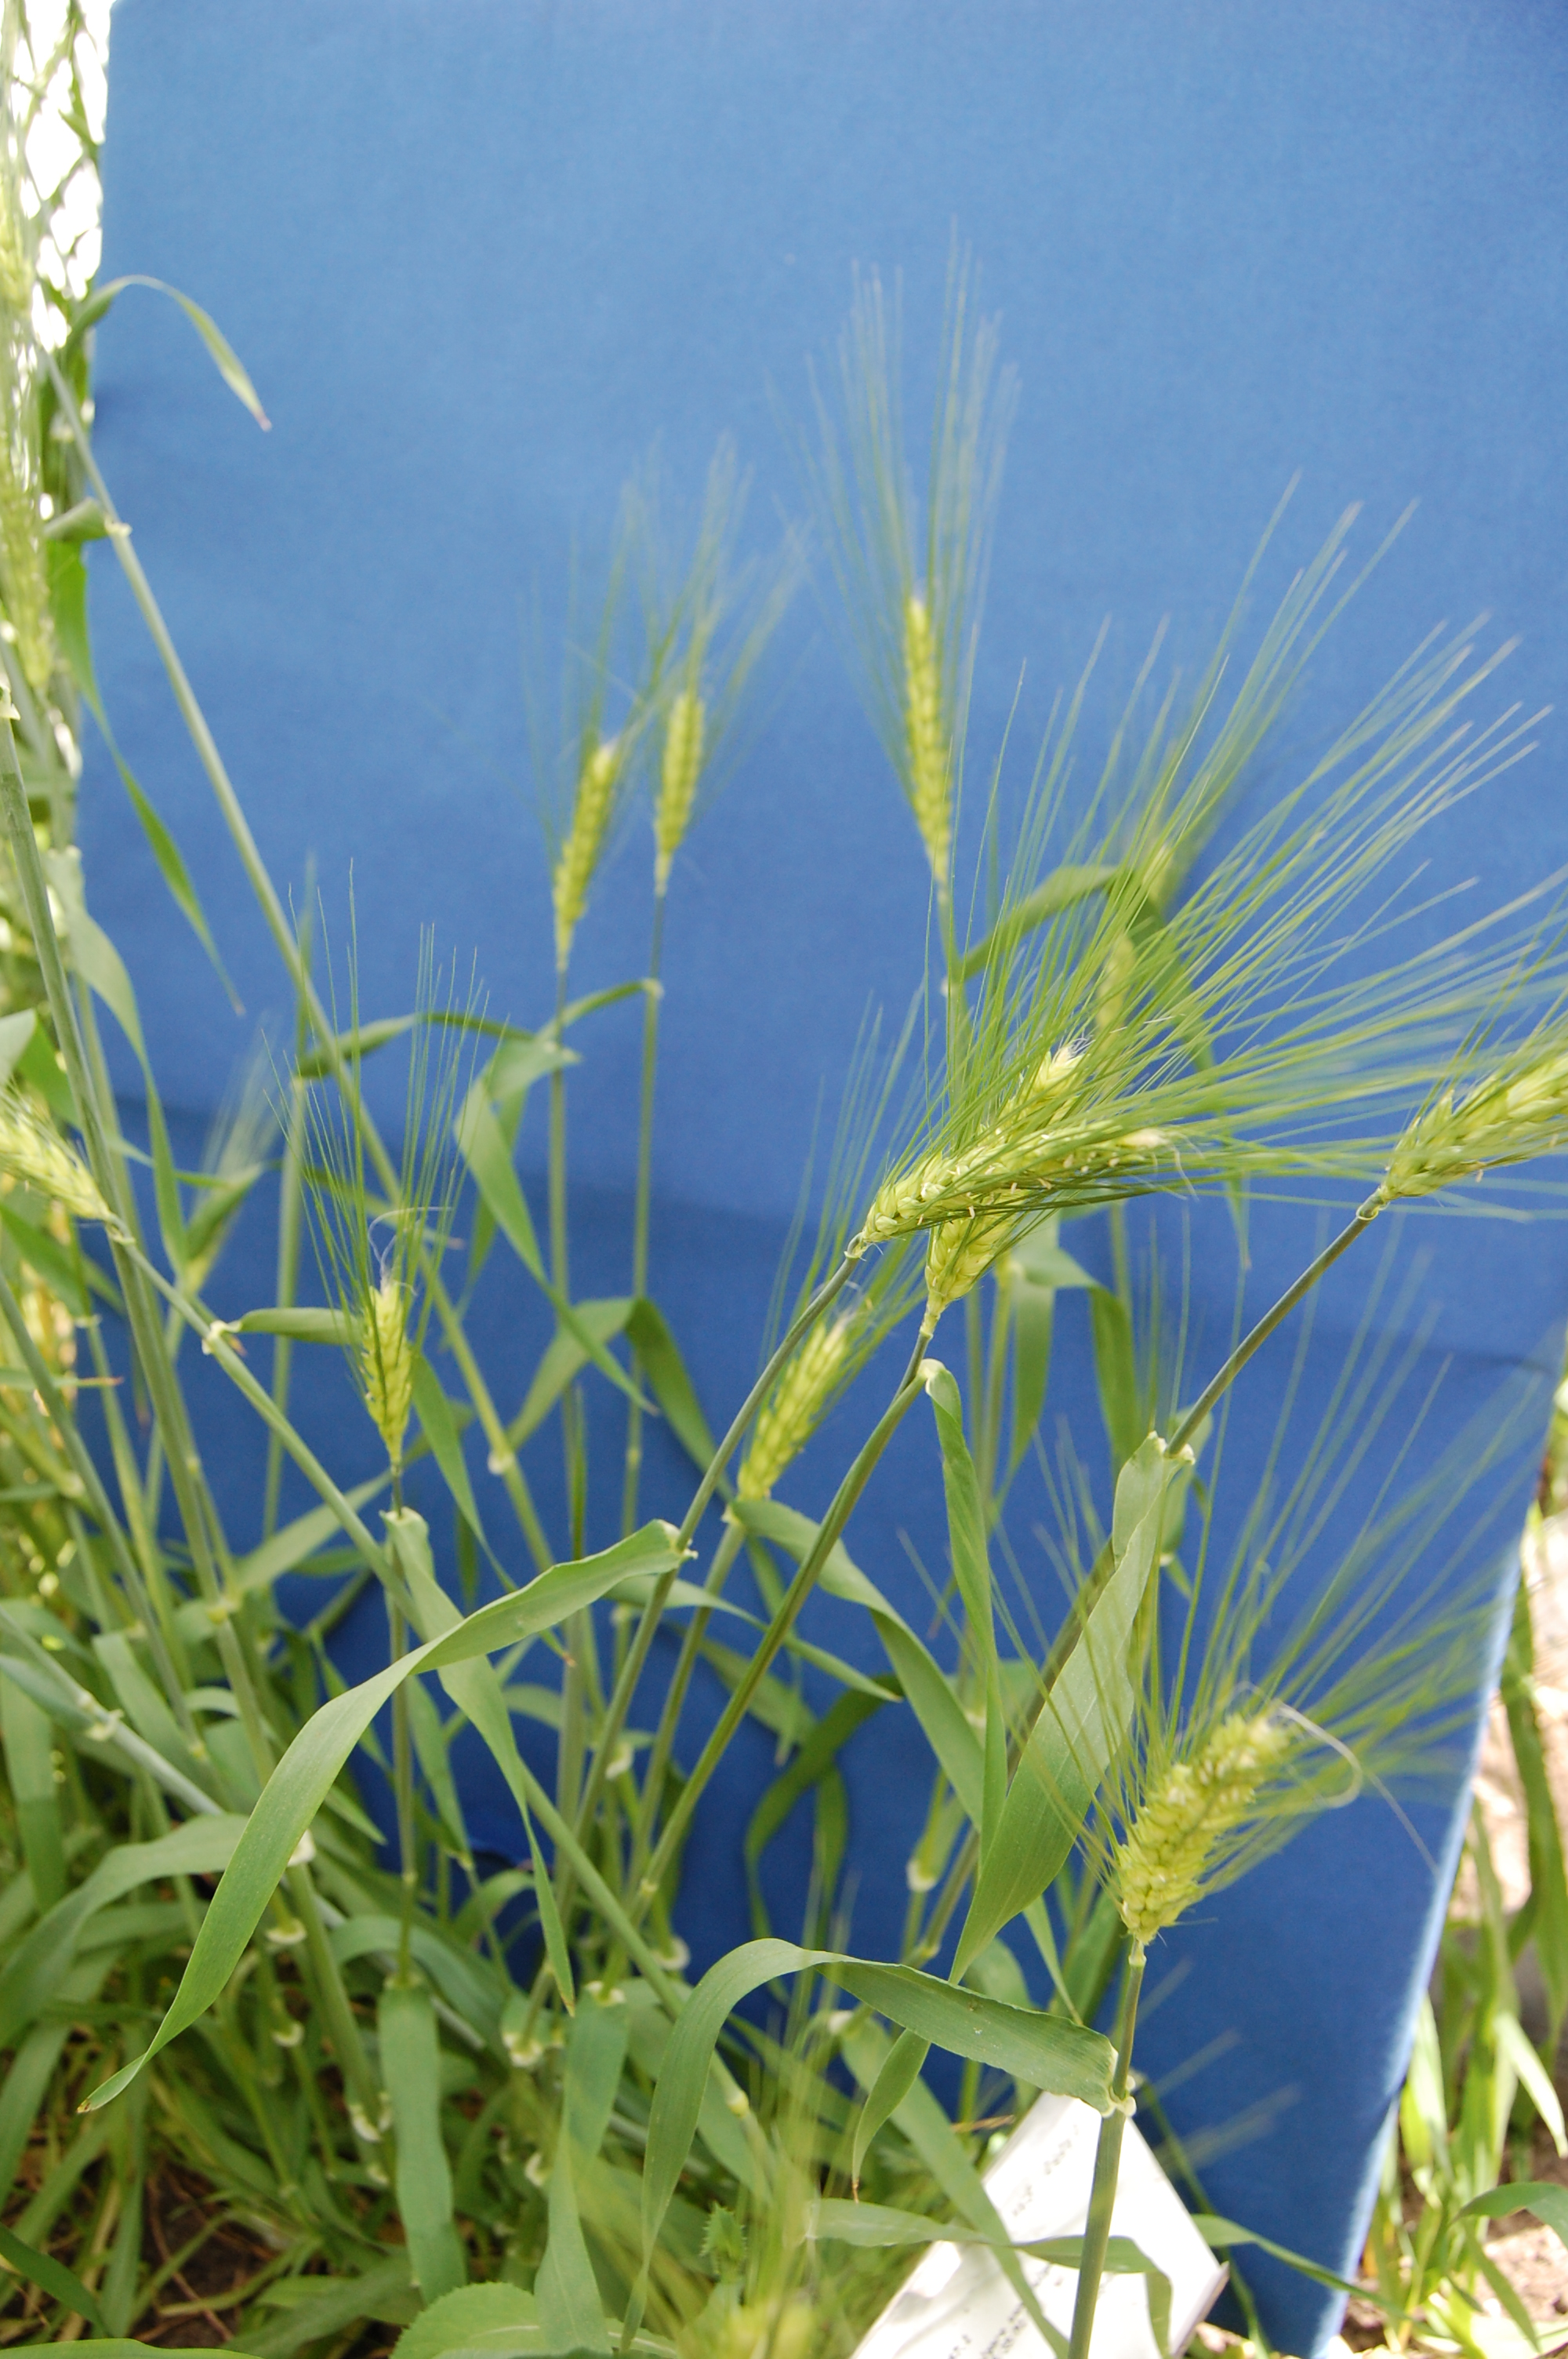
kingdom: Plantae
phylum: Tracheophyta
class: Liliopsida
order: Poales
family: Poaceae
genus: Hordeum
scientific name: Hordeum vulgare
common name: Common barley
